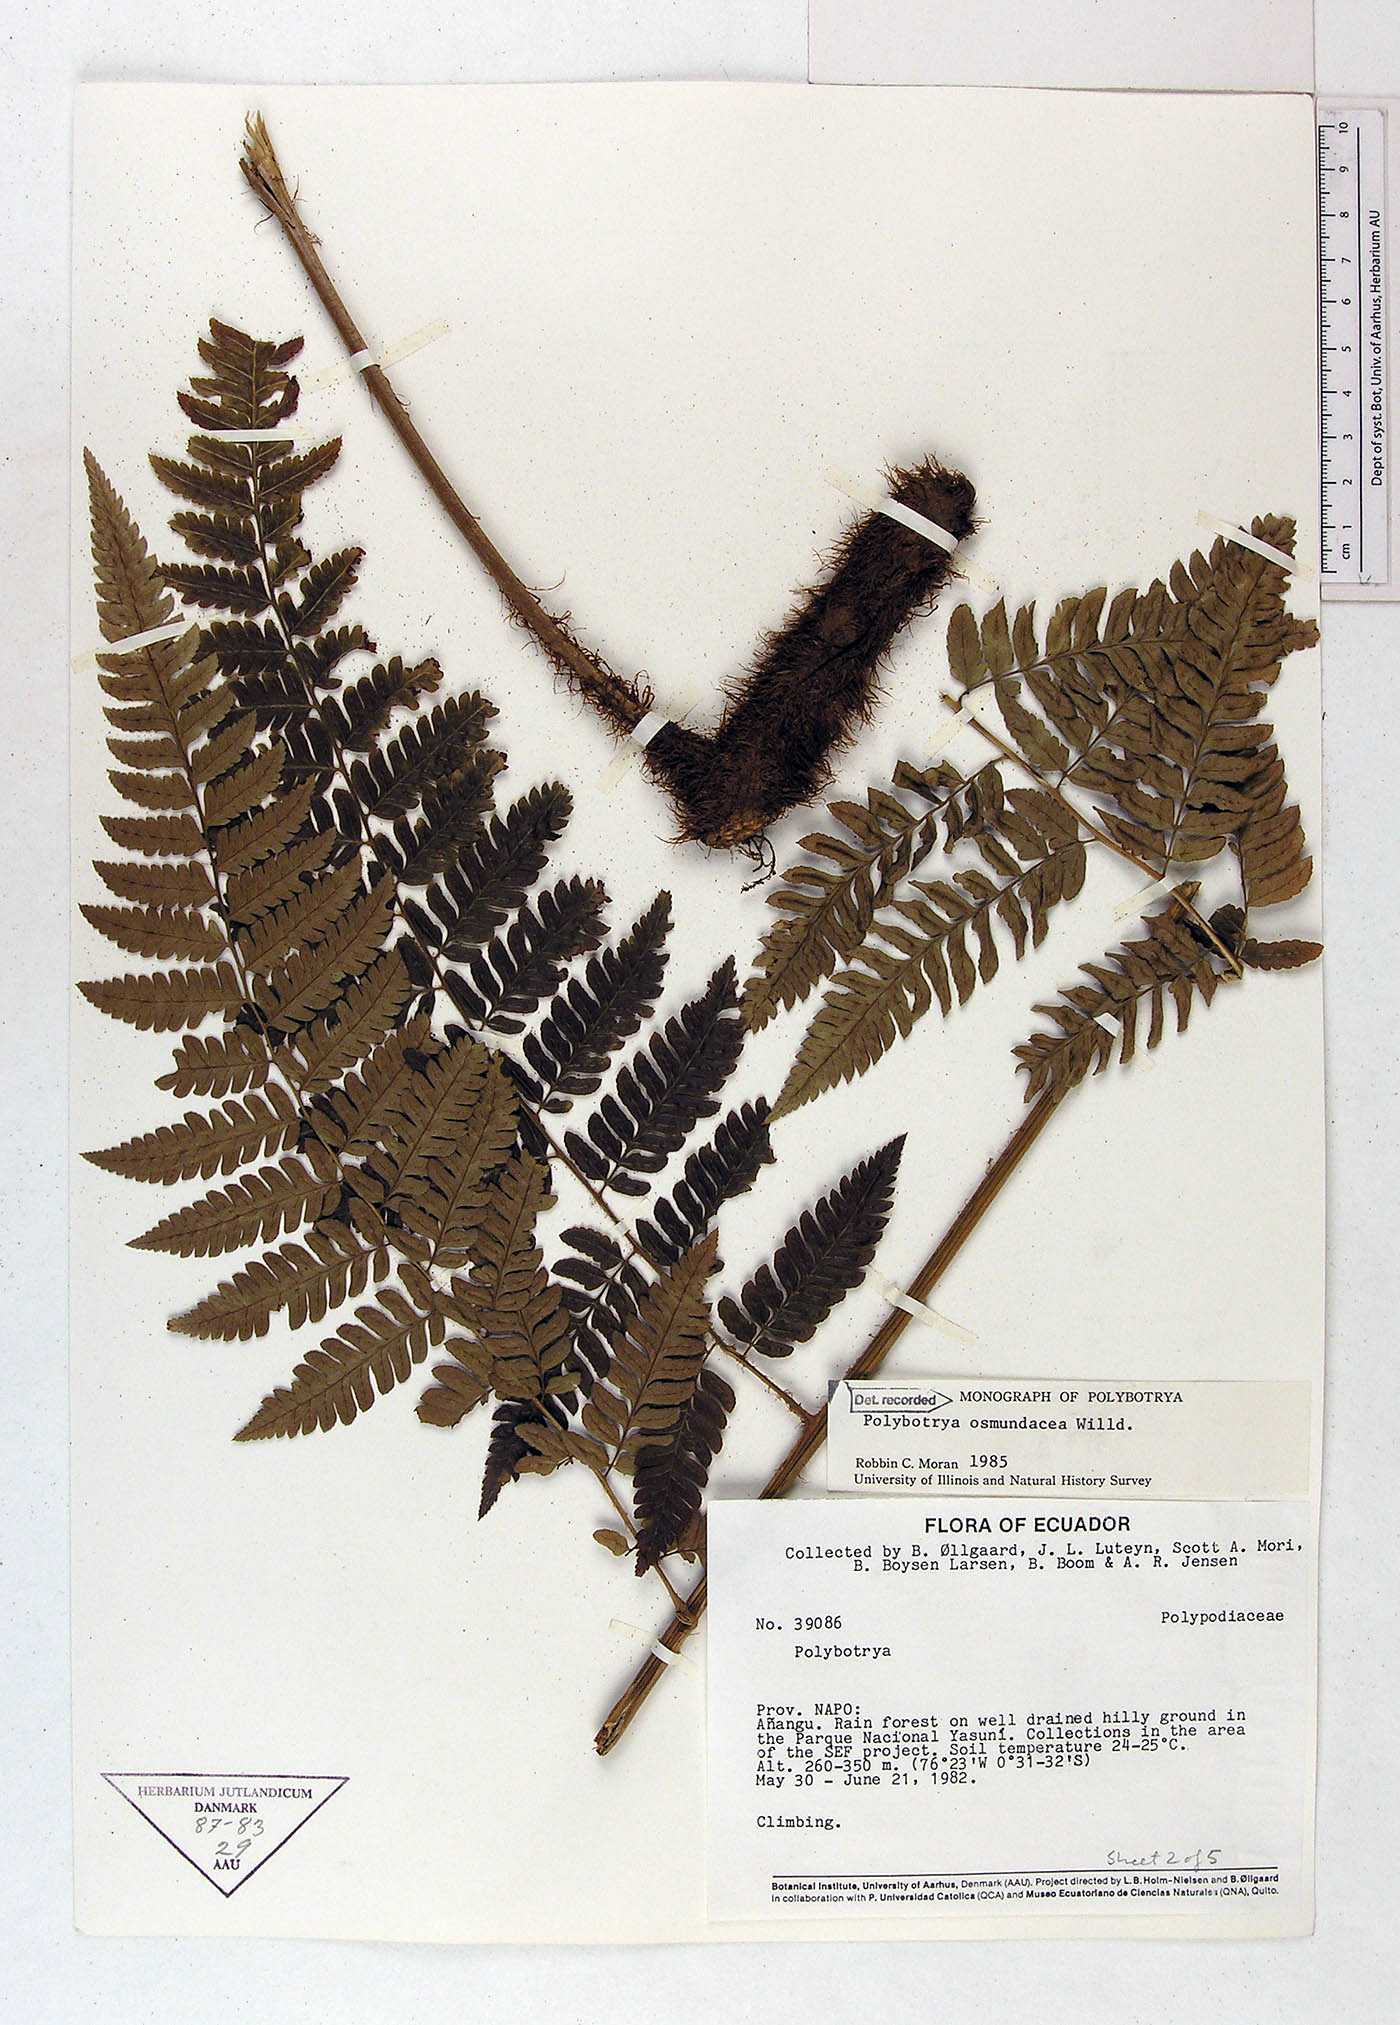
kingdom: Plantae
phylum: Tracheophyta
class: Polypodiopsida
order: Polypodiales
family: Dryopteridaceae
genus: Polybotrya
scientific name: Polybotrya osmundacea
